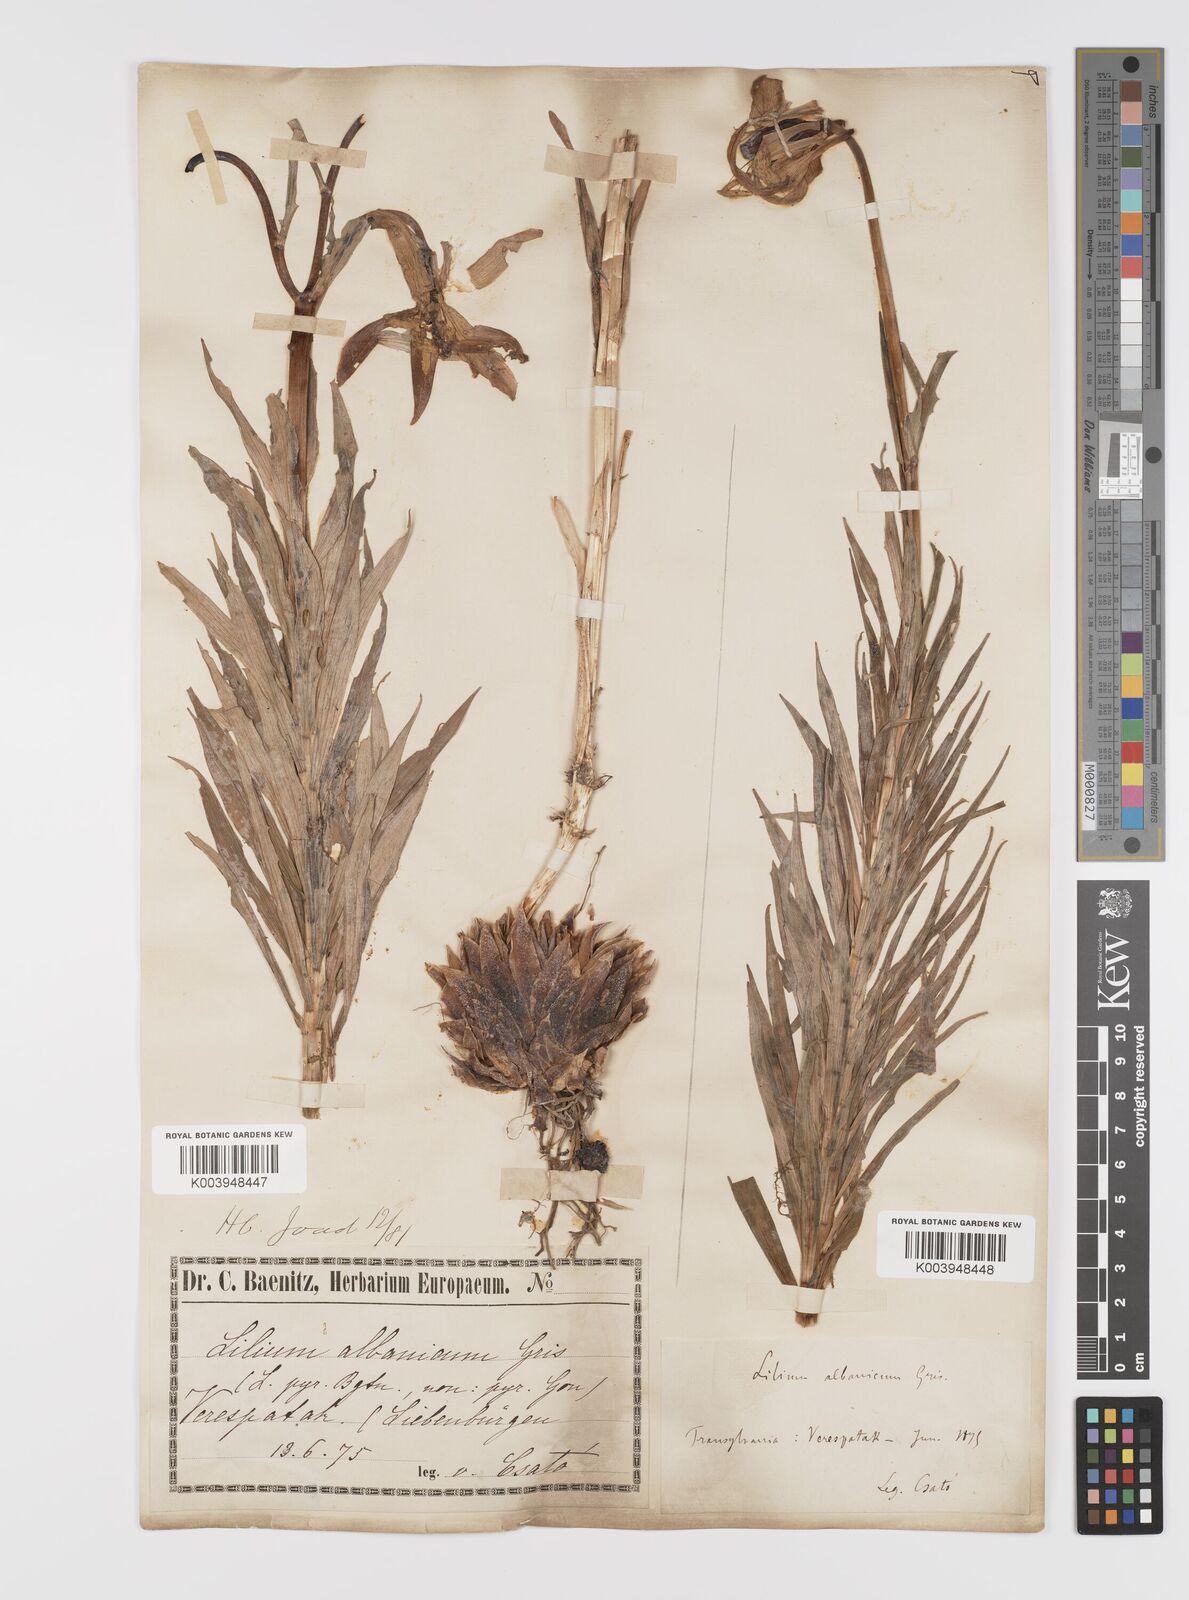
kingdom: Plantae
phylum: Tracheophyta
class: Liliopsida
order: Liliales
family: Liliaceae
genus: Lilium
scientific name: Lilium jankae
